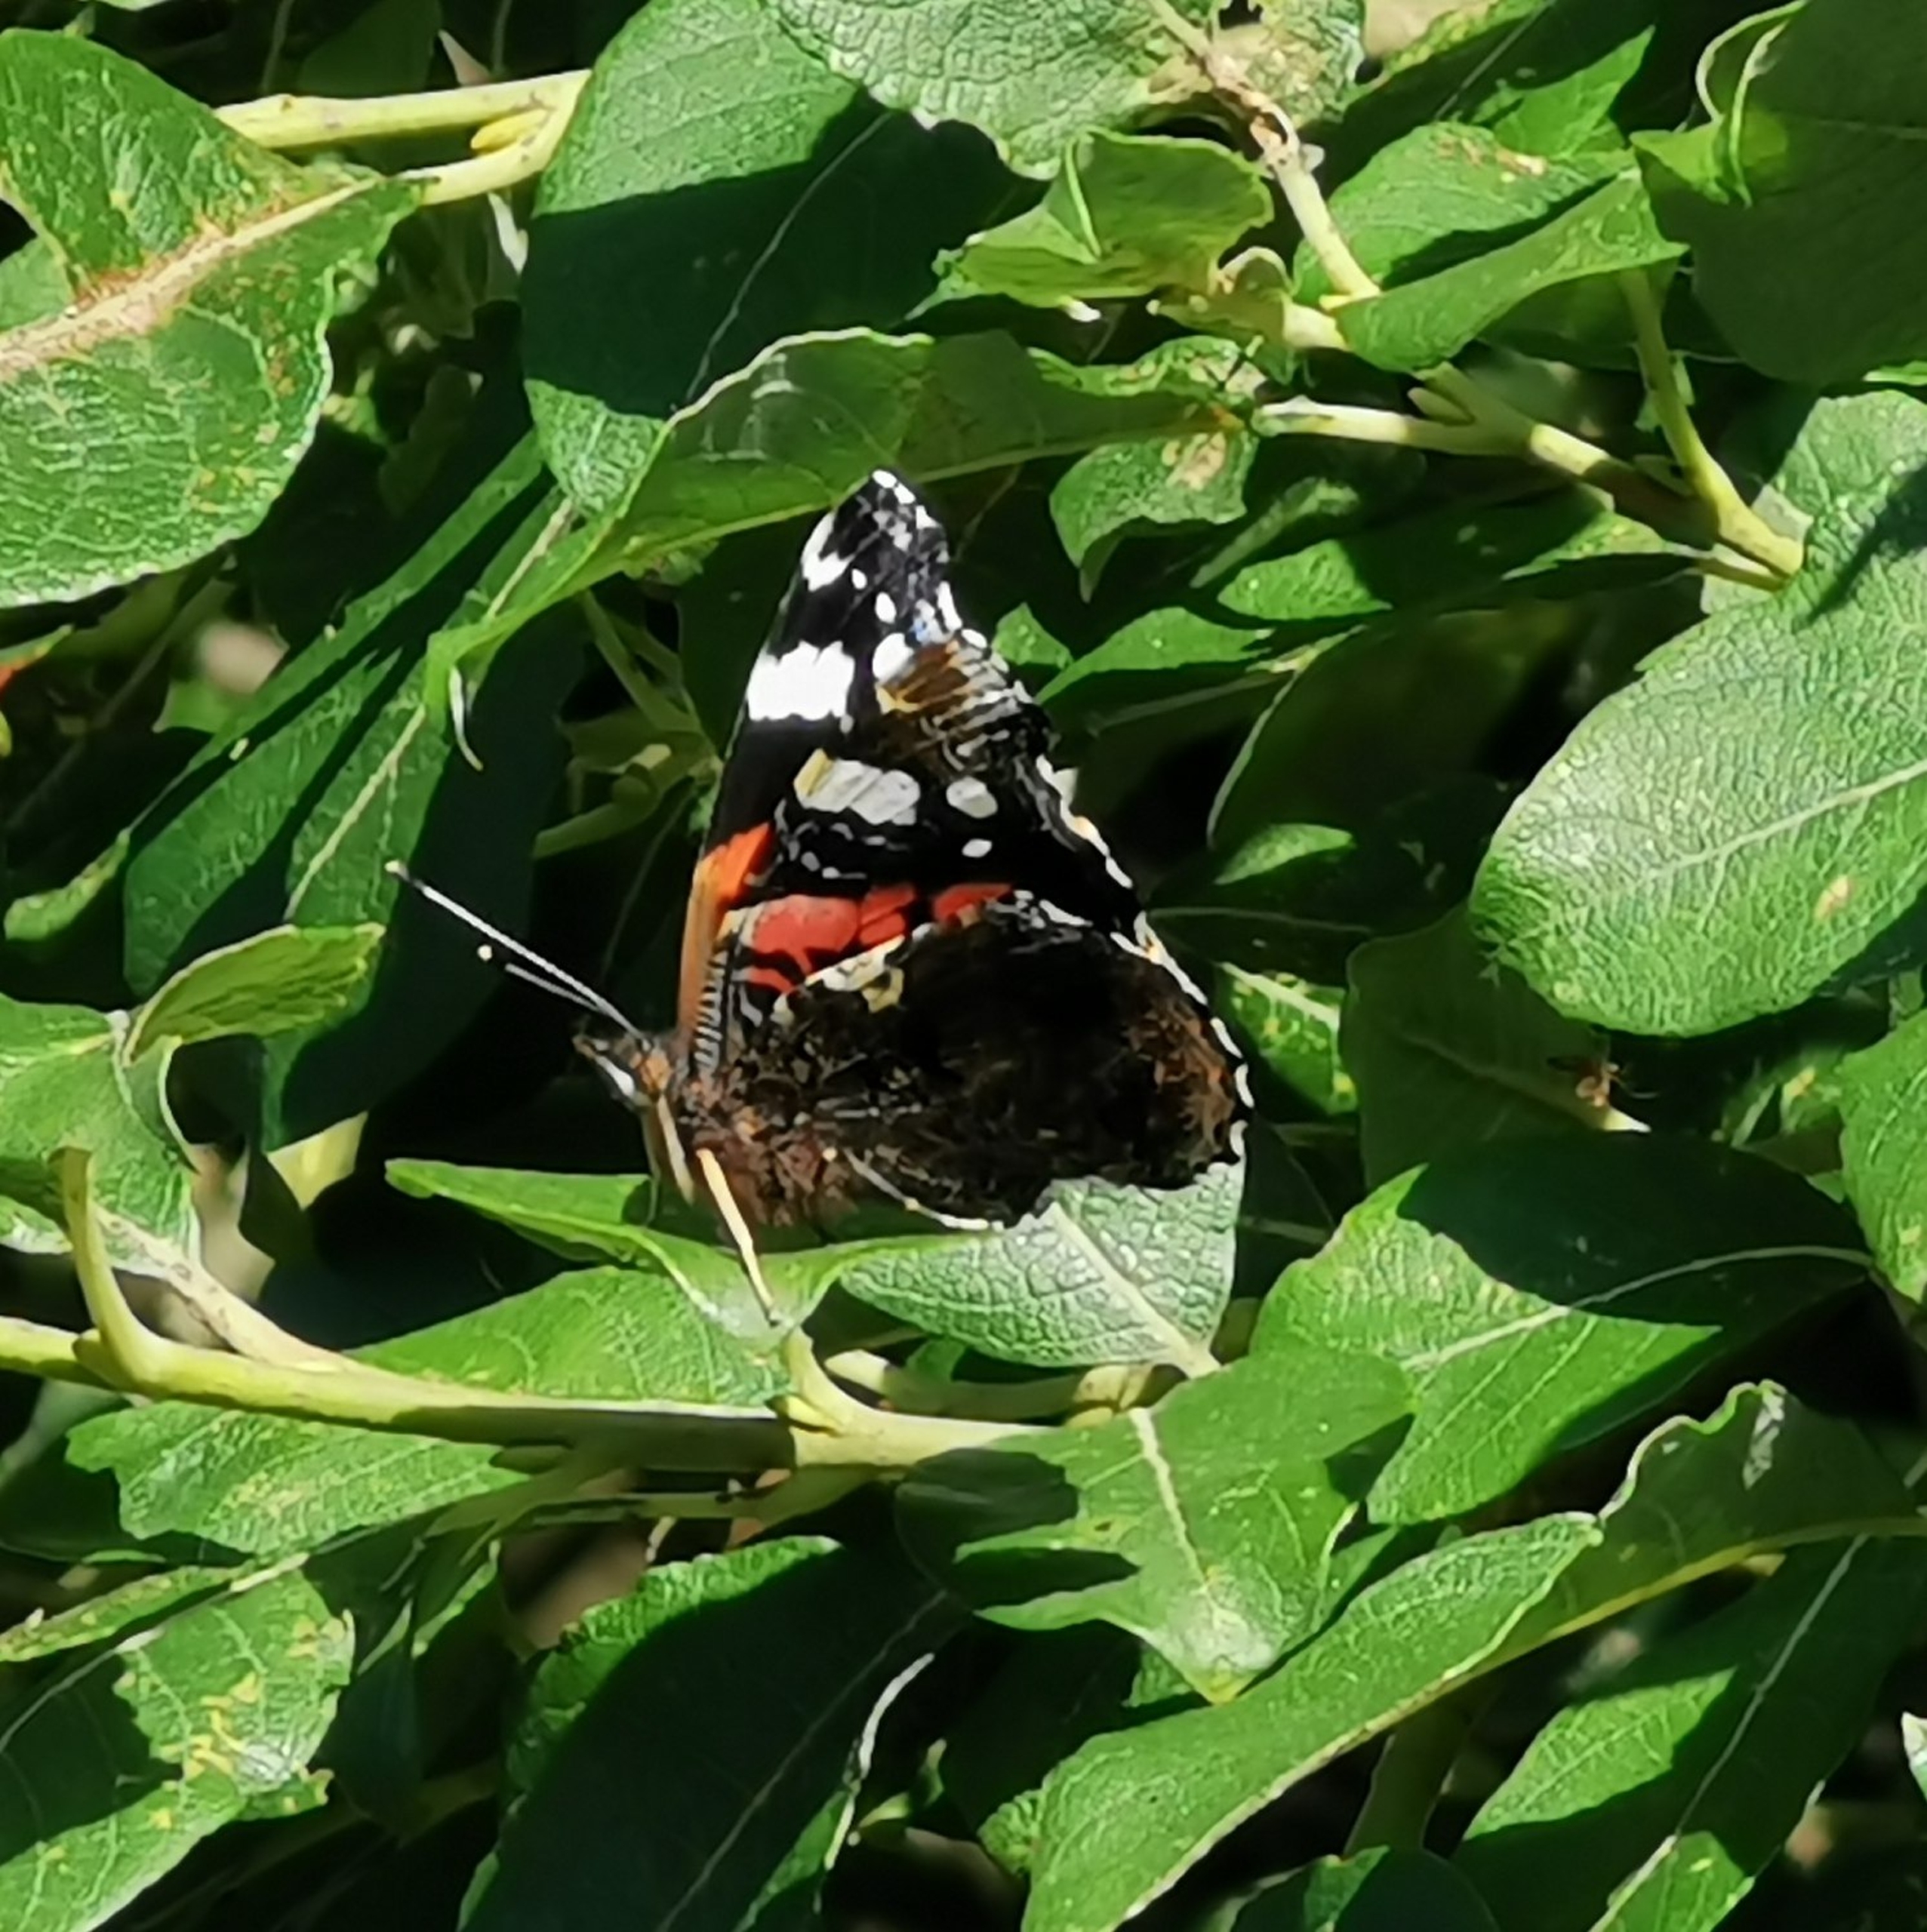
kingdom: Animalia
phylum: Arthropoda
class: Insecta
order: Lepidoptera
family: Nymphalidae
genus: Vanessa
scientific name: Vanessa atalanta
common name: Admiral
